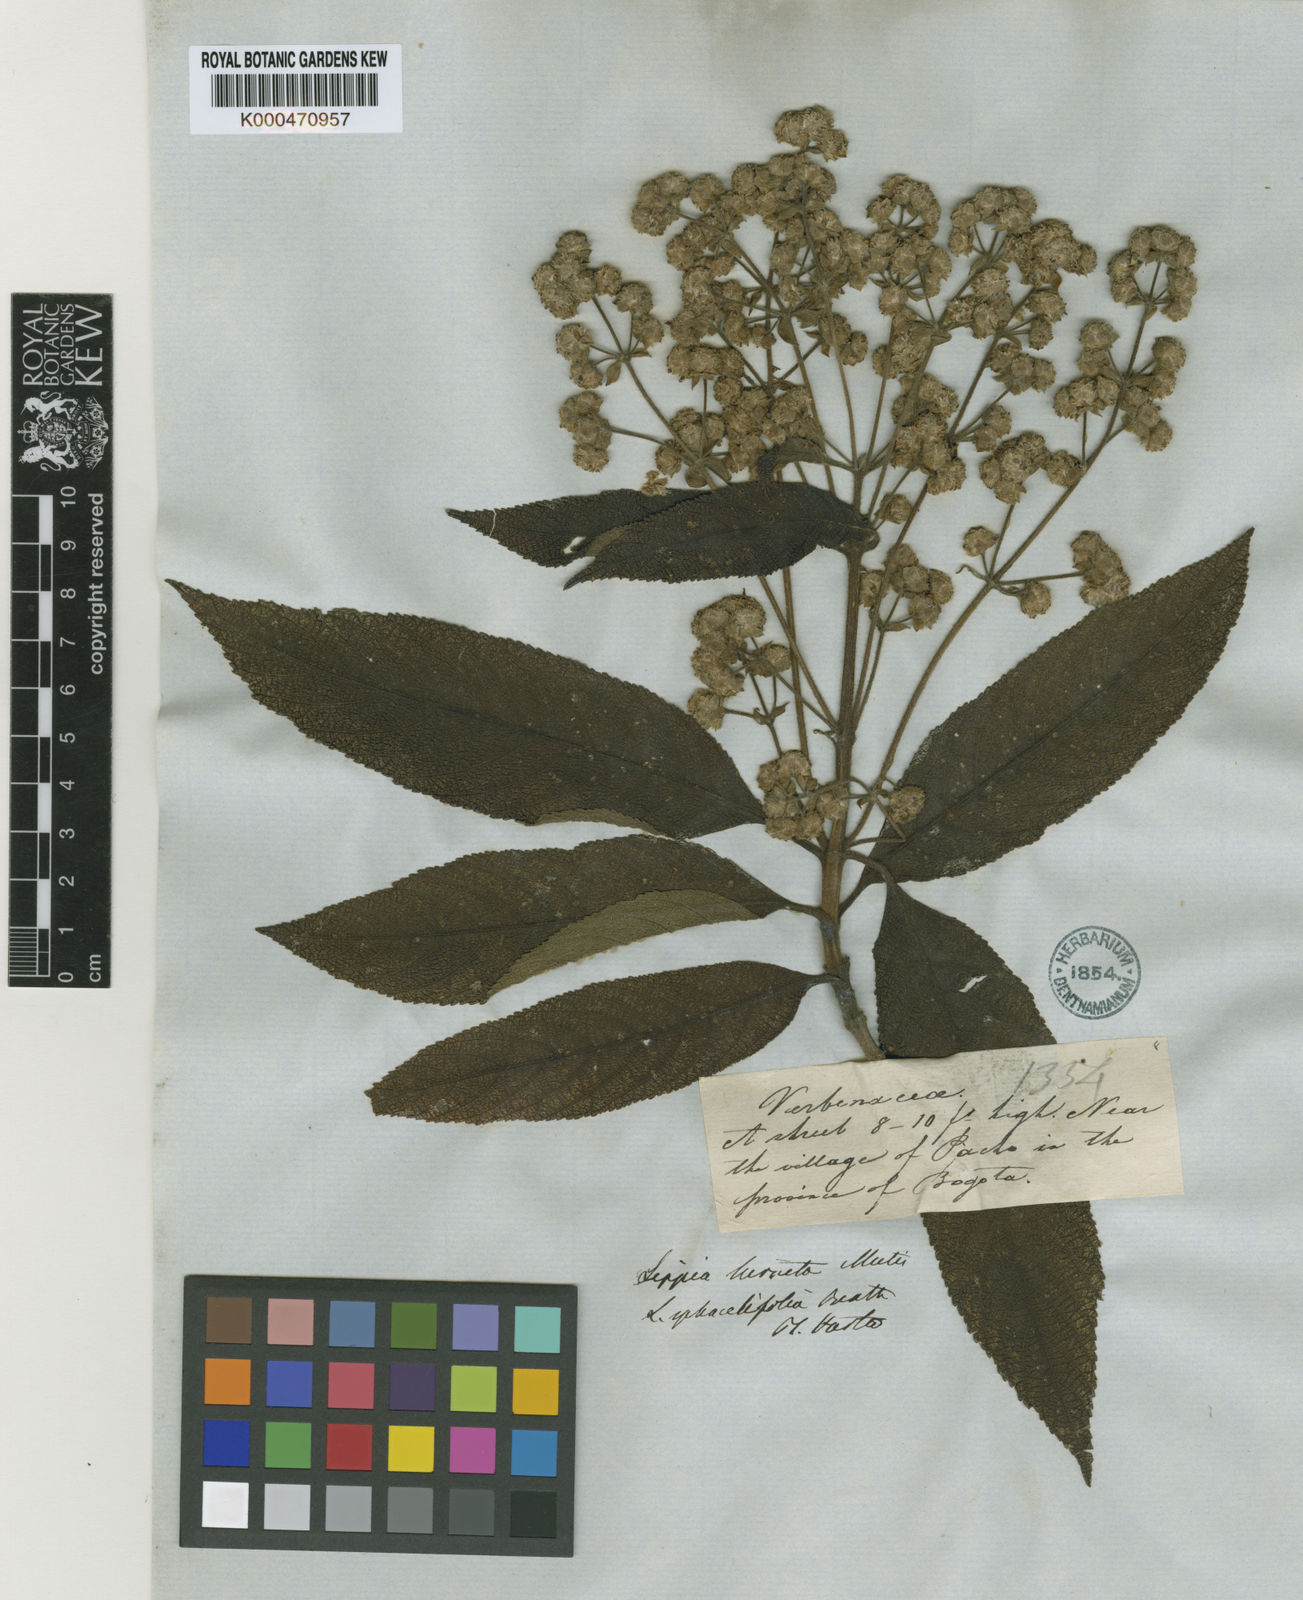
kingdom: Plantae
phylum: Tracheophyta
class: Magnoliopsida
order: Lamiales
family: Verbenaceae
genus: Lippia
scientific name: Lippia hirsuta
